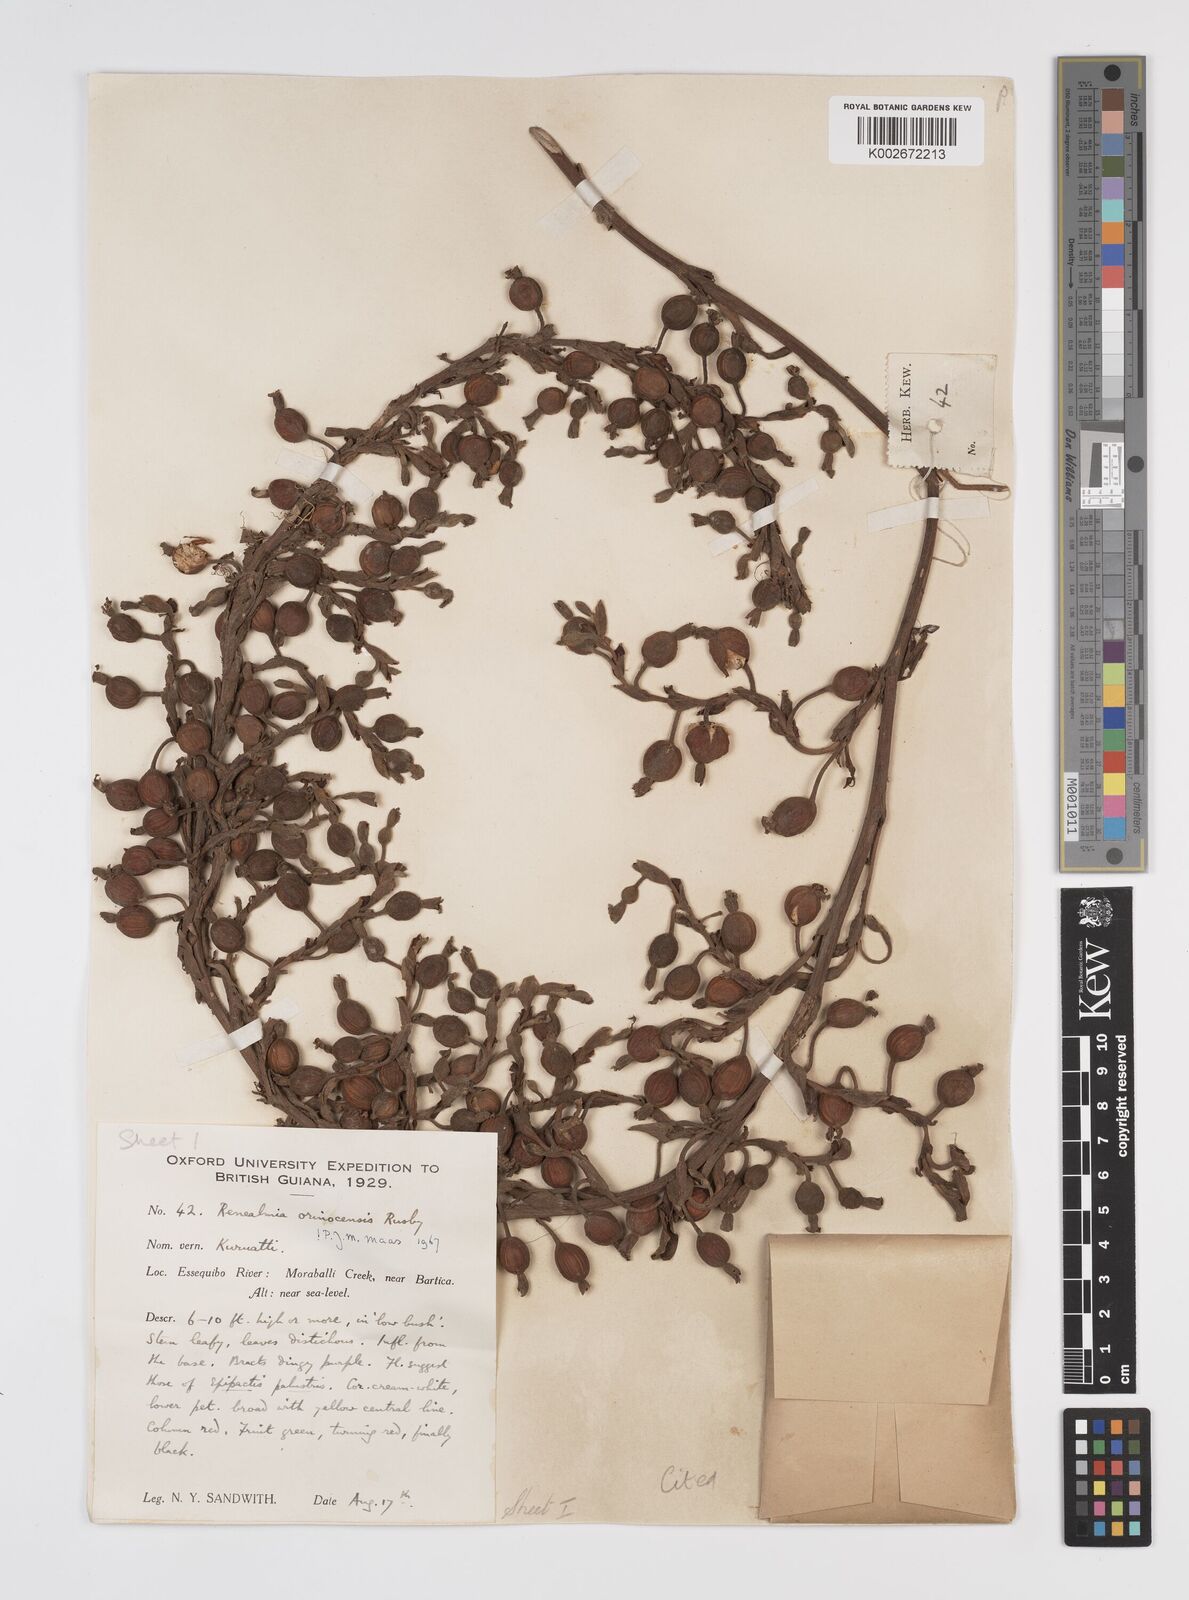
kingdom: Plantae
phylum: Tracheophyta
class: Liliopsida
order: Zingiberales
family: Zingiberaceae
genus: Renealmia
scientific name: Renealmia orinocensis
